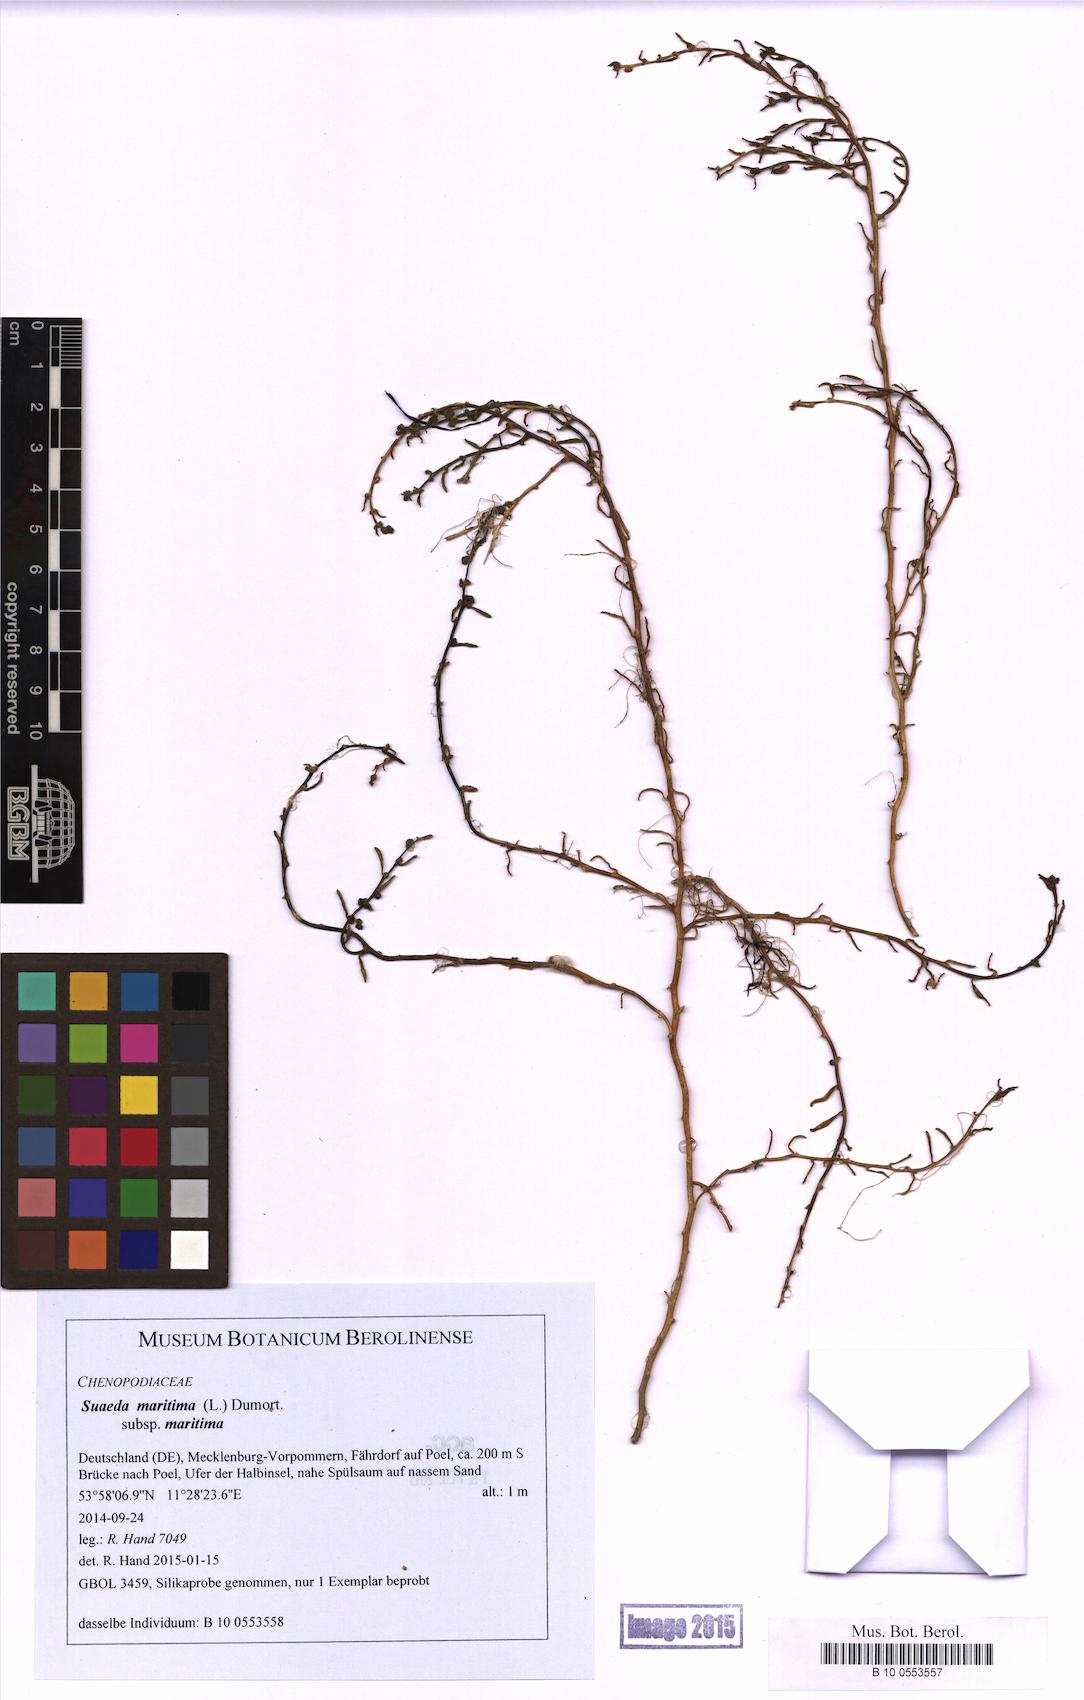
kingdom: Plantae
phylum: Tracheophyta
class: Magnoliopsida
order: Caryophyllales
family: Amaranthaceae
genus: Suaeda
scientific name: Suaeda maritima
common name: Annual sea-blite
